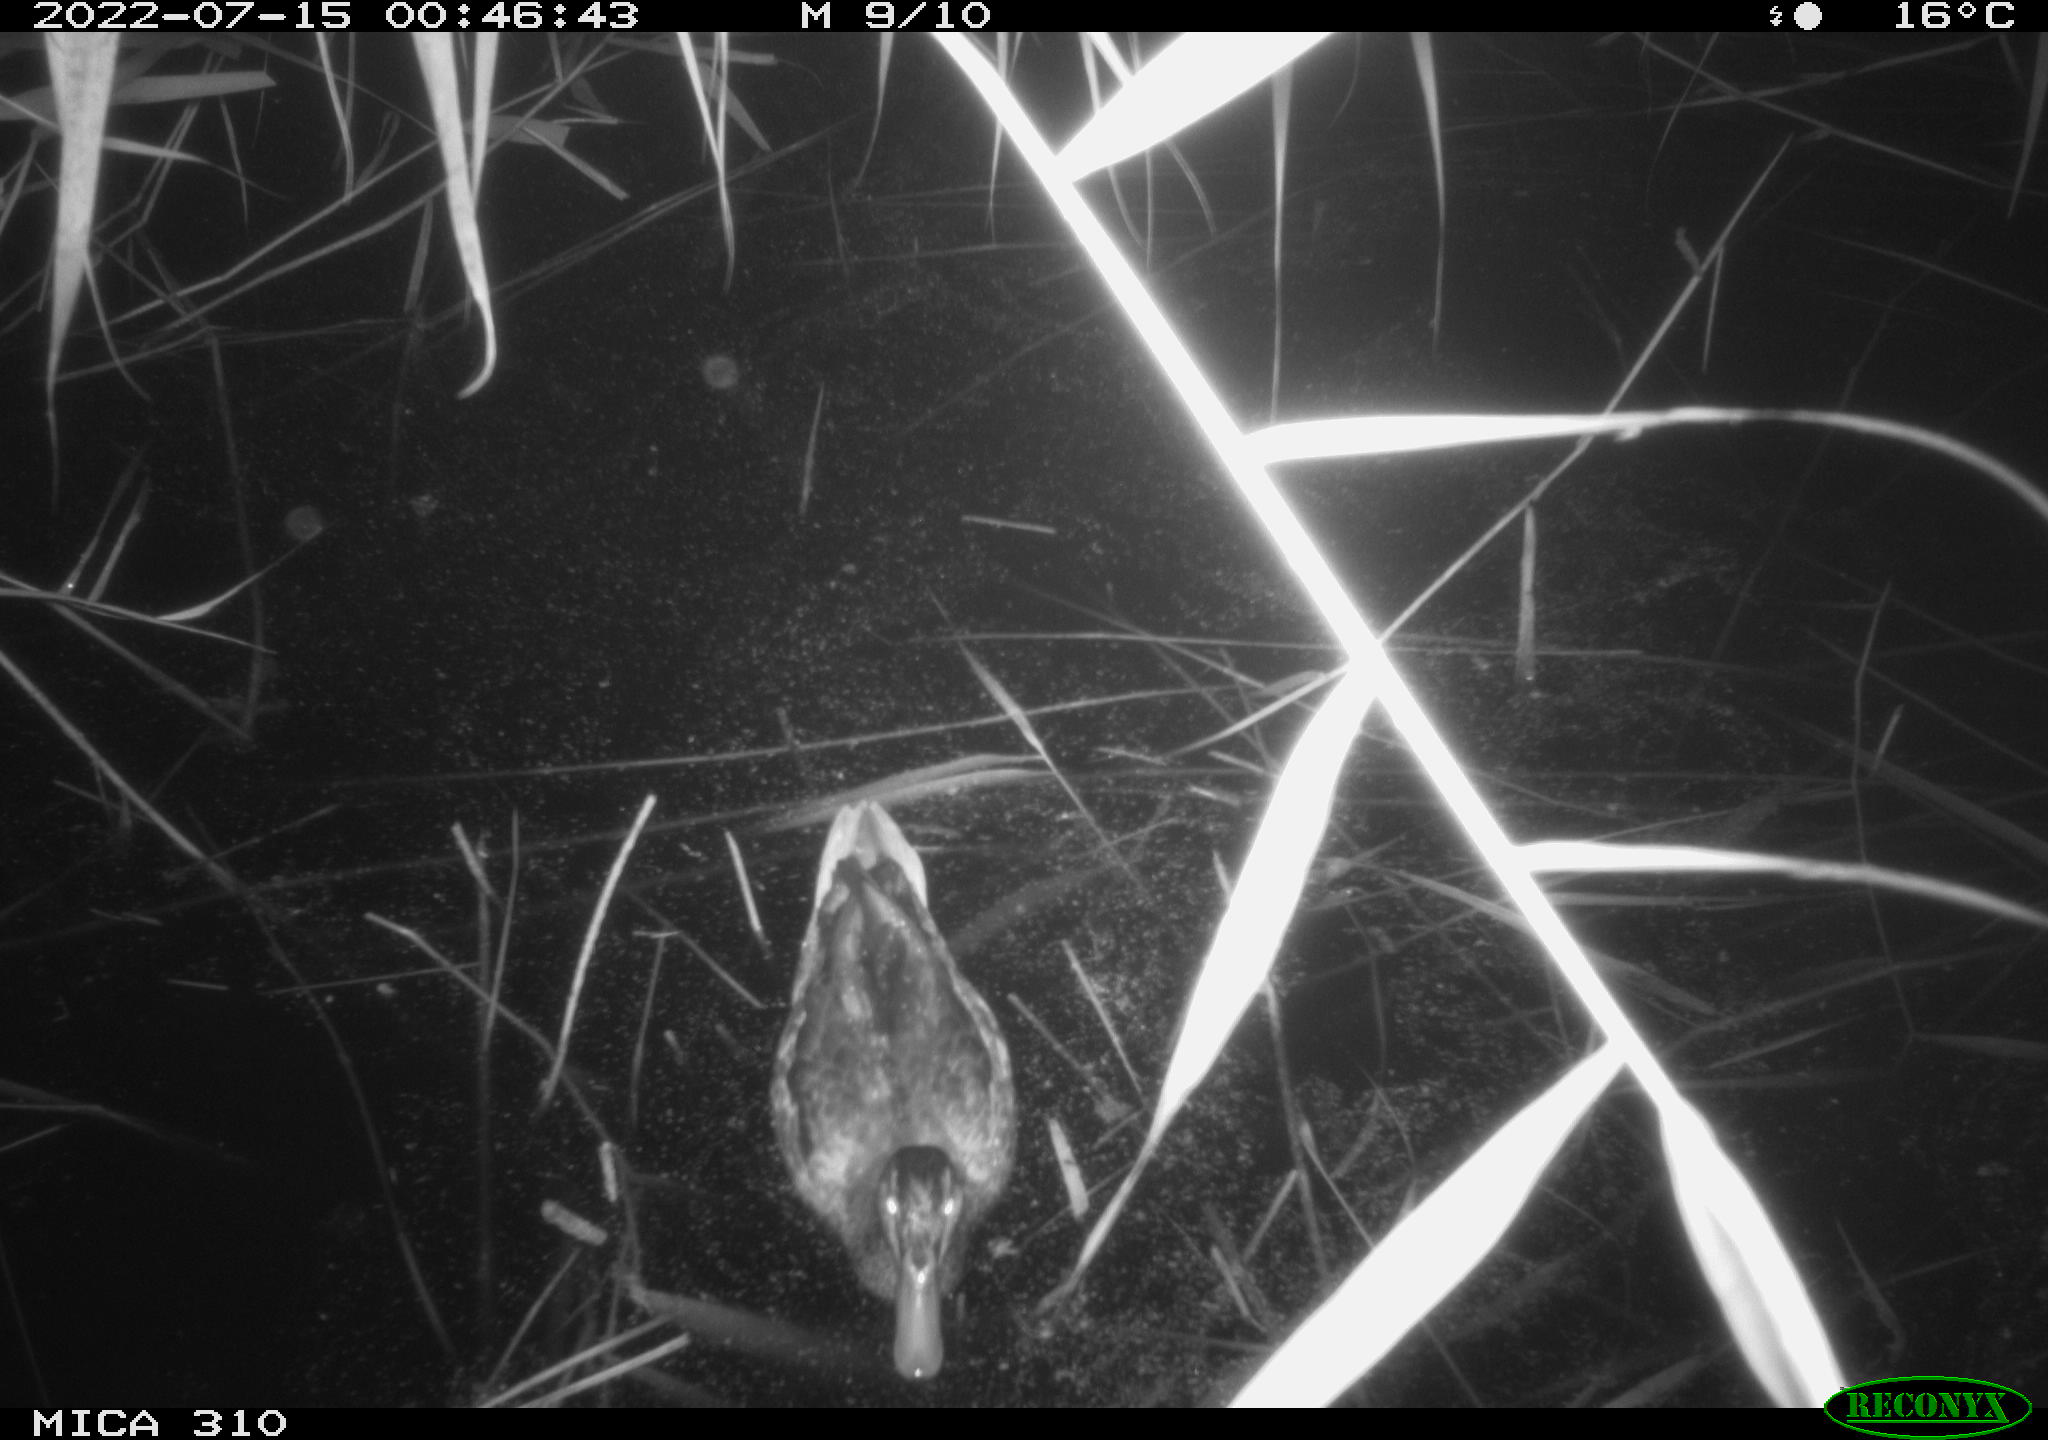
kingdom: Animalia
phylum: Chordata
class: Aves
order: Anseriformes
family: Anatidae
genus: Anas
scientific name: Anas platyrhynchos
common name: Mallard
